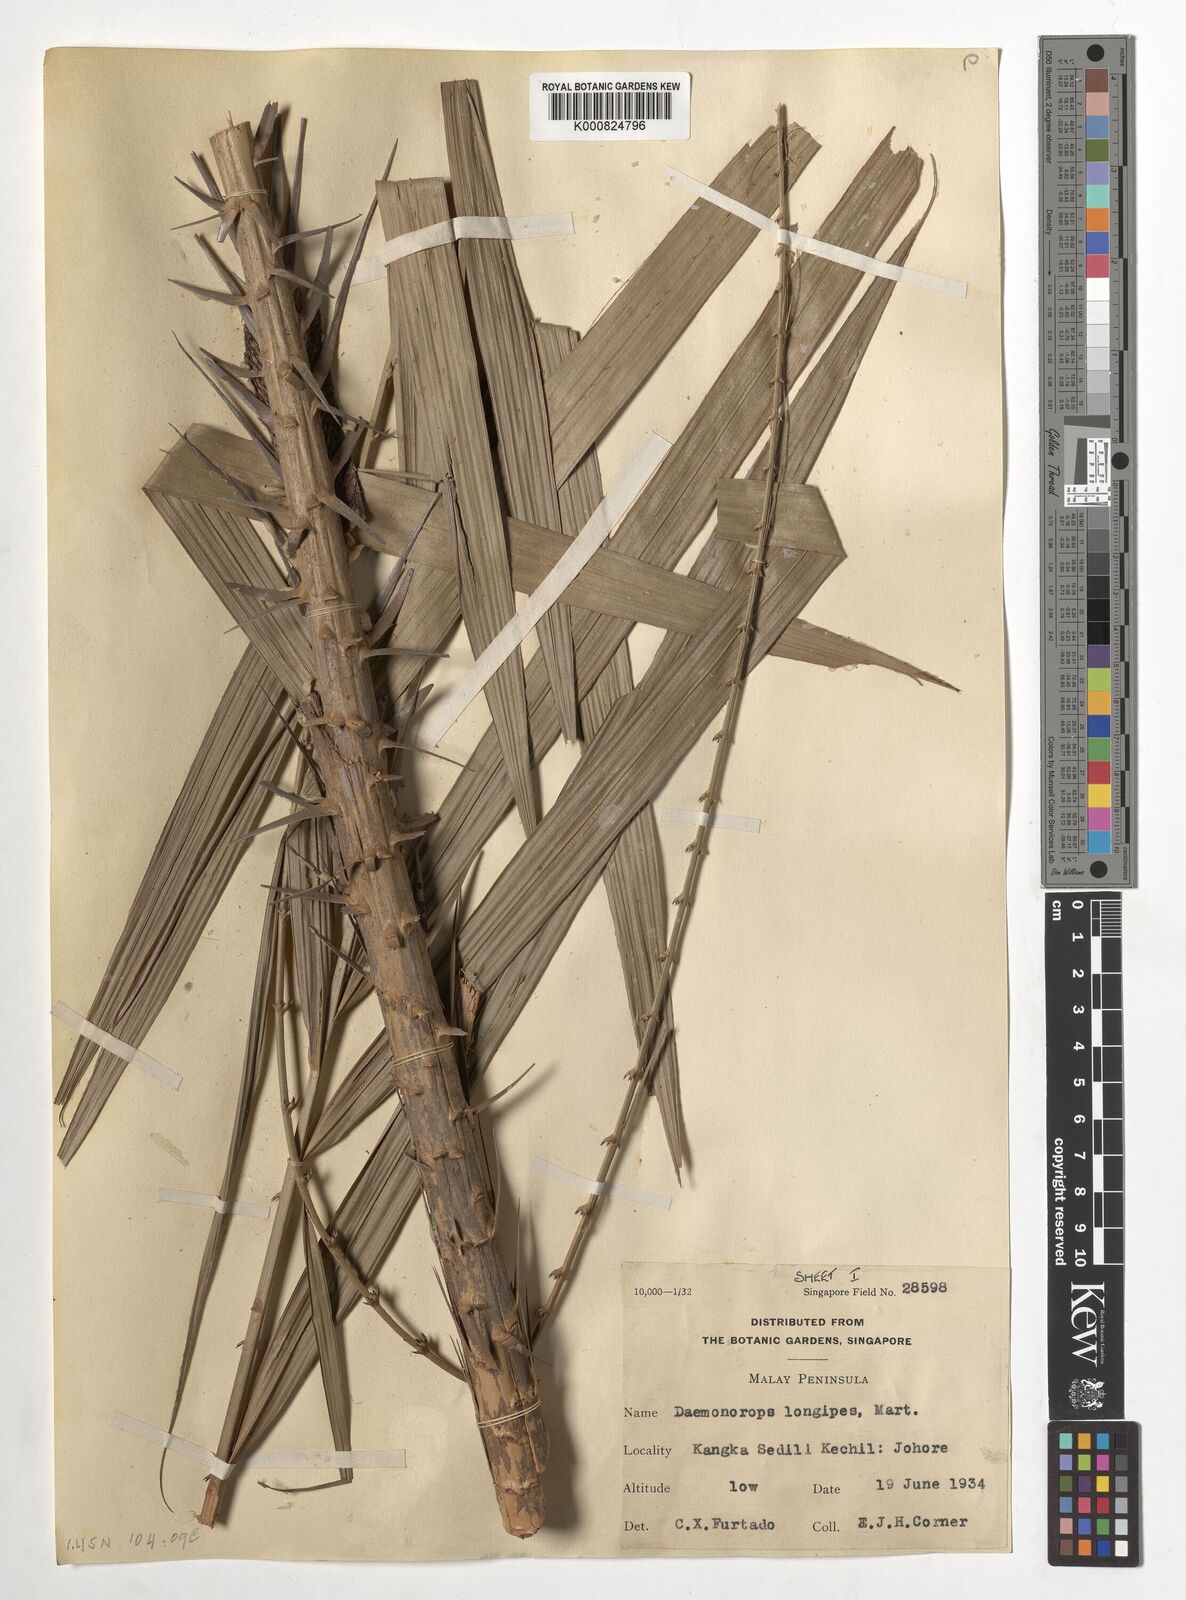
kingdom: Plantae
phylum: Tracheophyta
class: Liliopsida
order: Arecales
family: Arecaceae
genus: Calamus
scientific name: Calamus longipes
